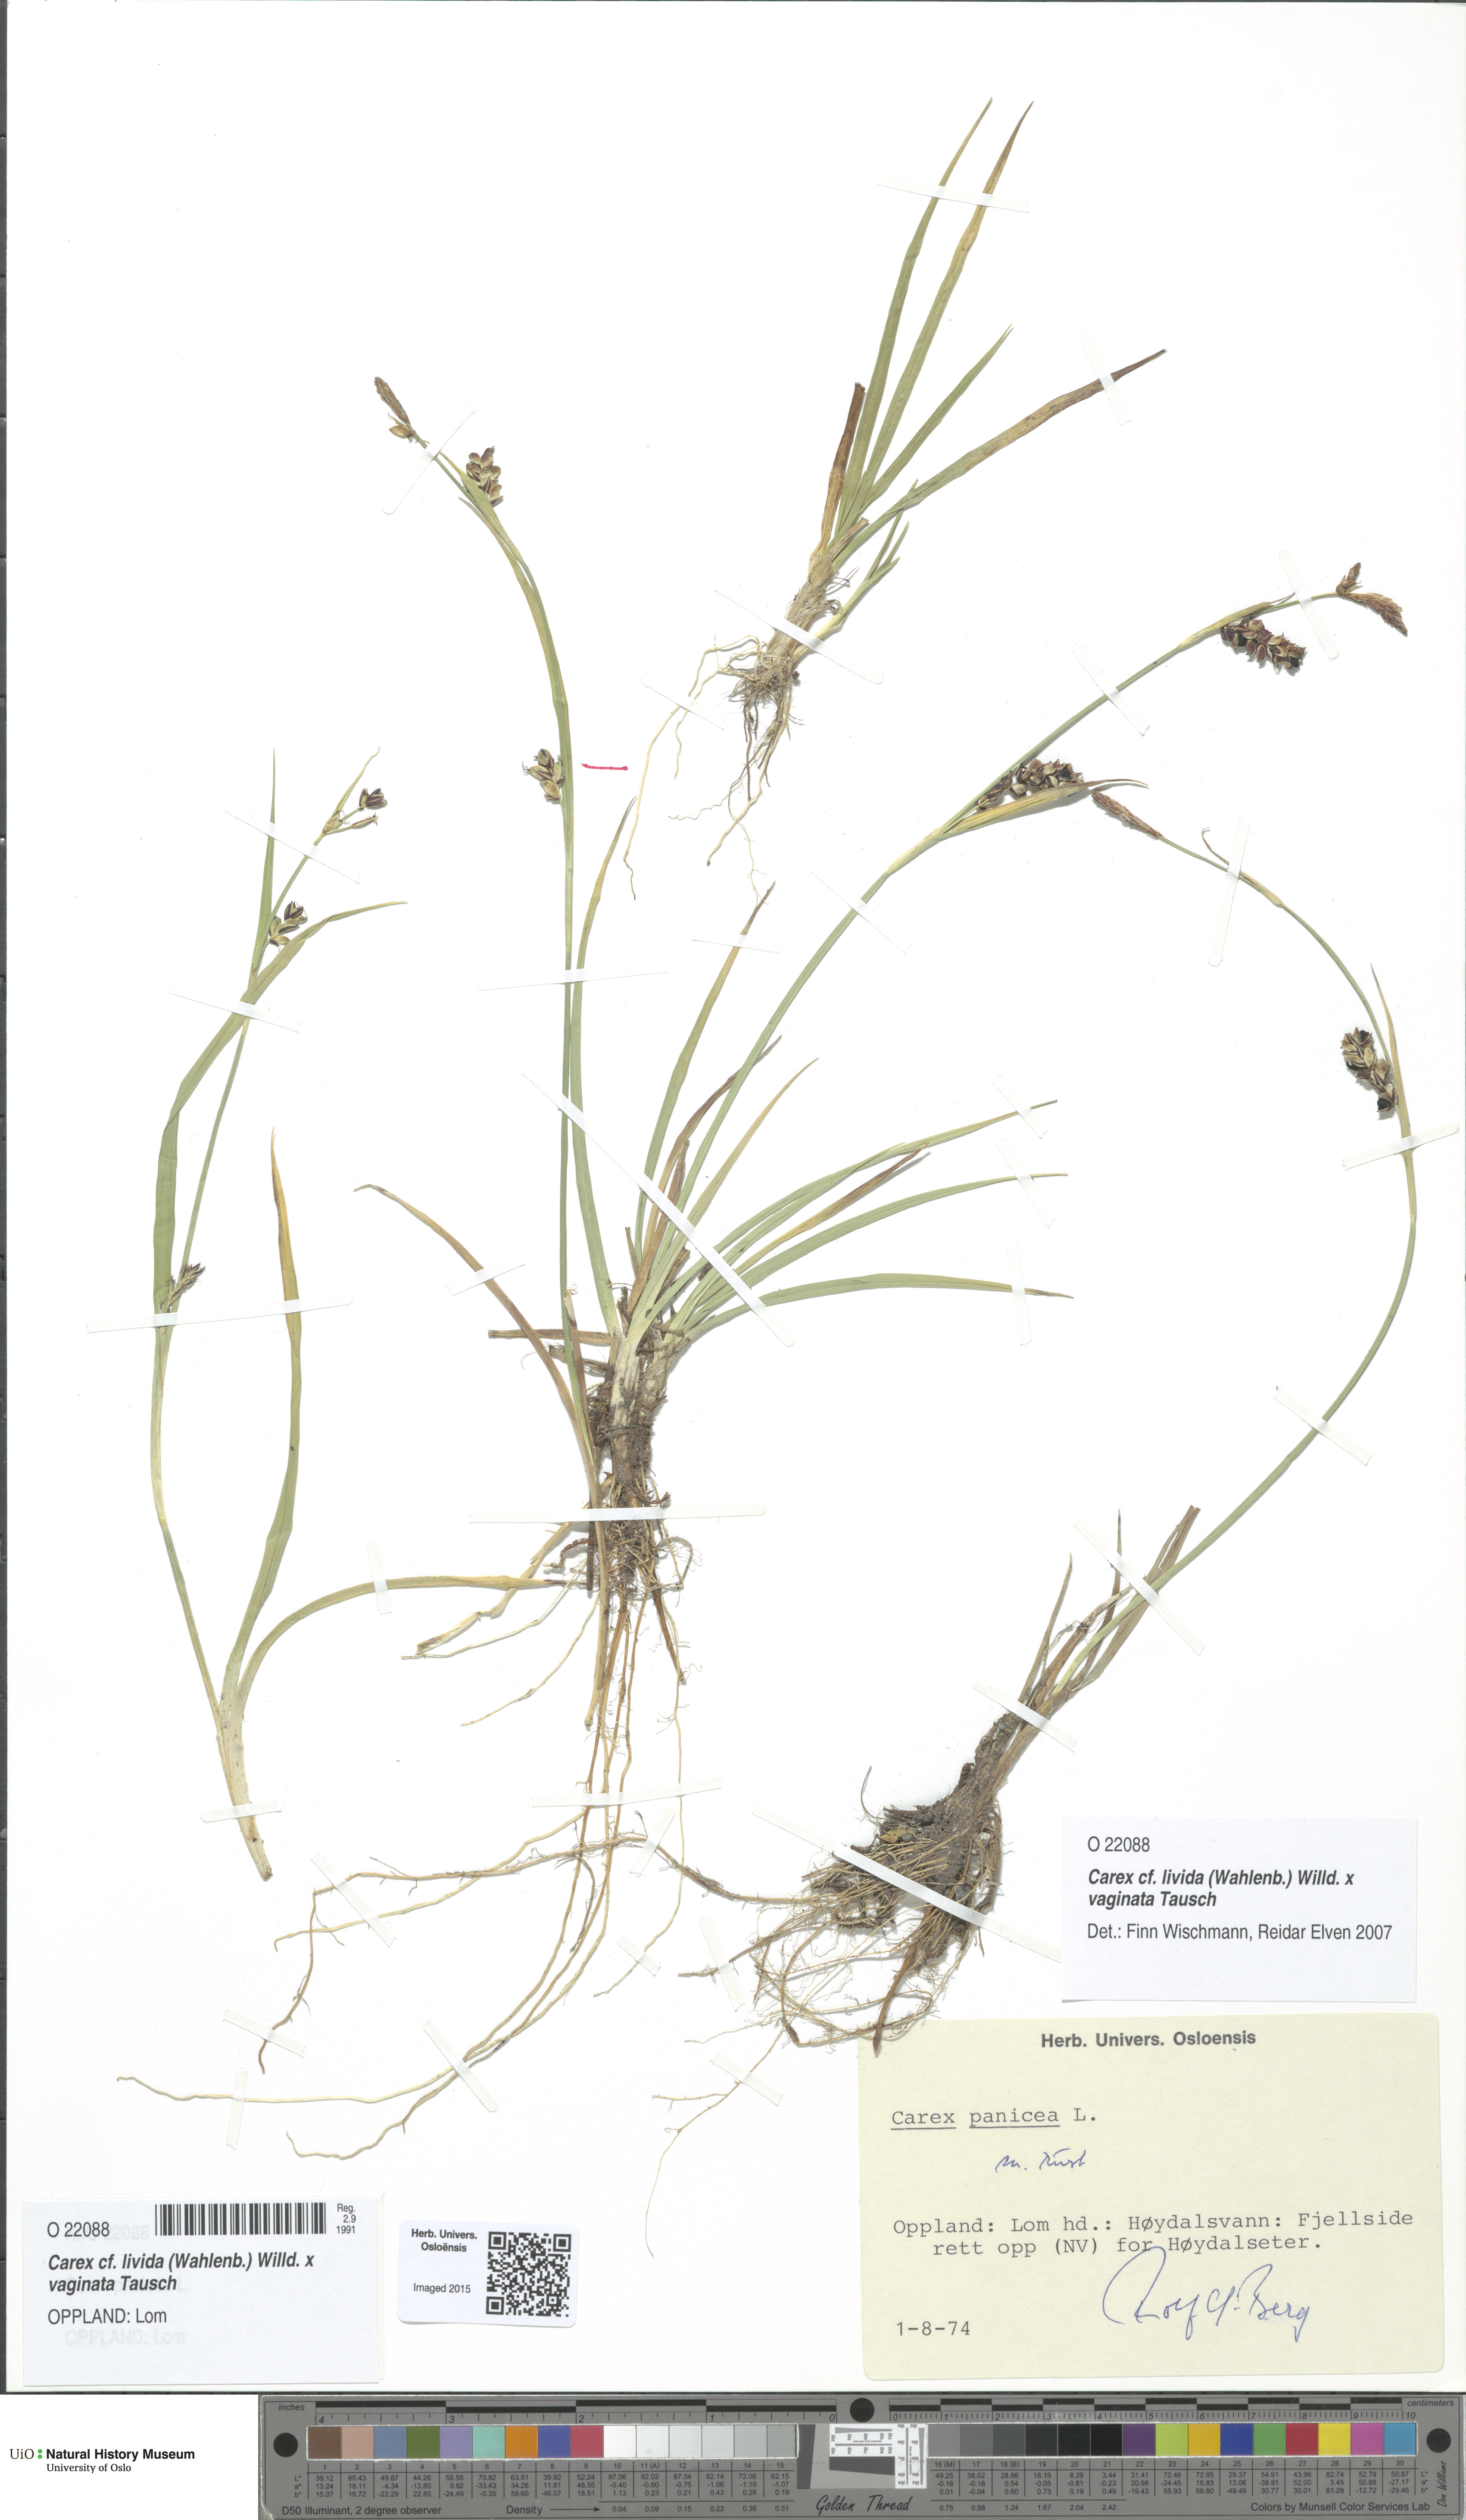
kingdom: Plantae
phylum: Tracheophyta
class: Liliopsida
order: Poales
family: Cyperaceae
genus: Carex
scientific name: Carex
